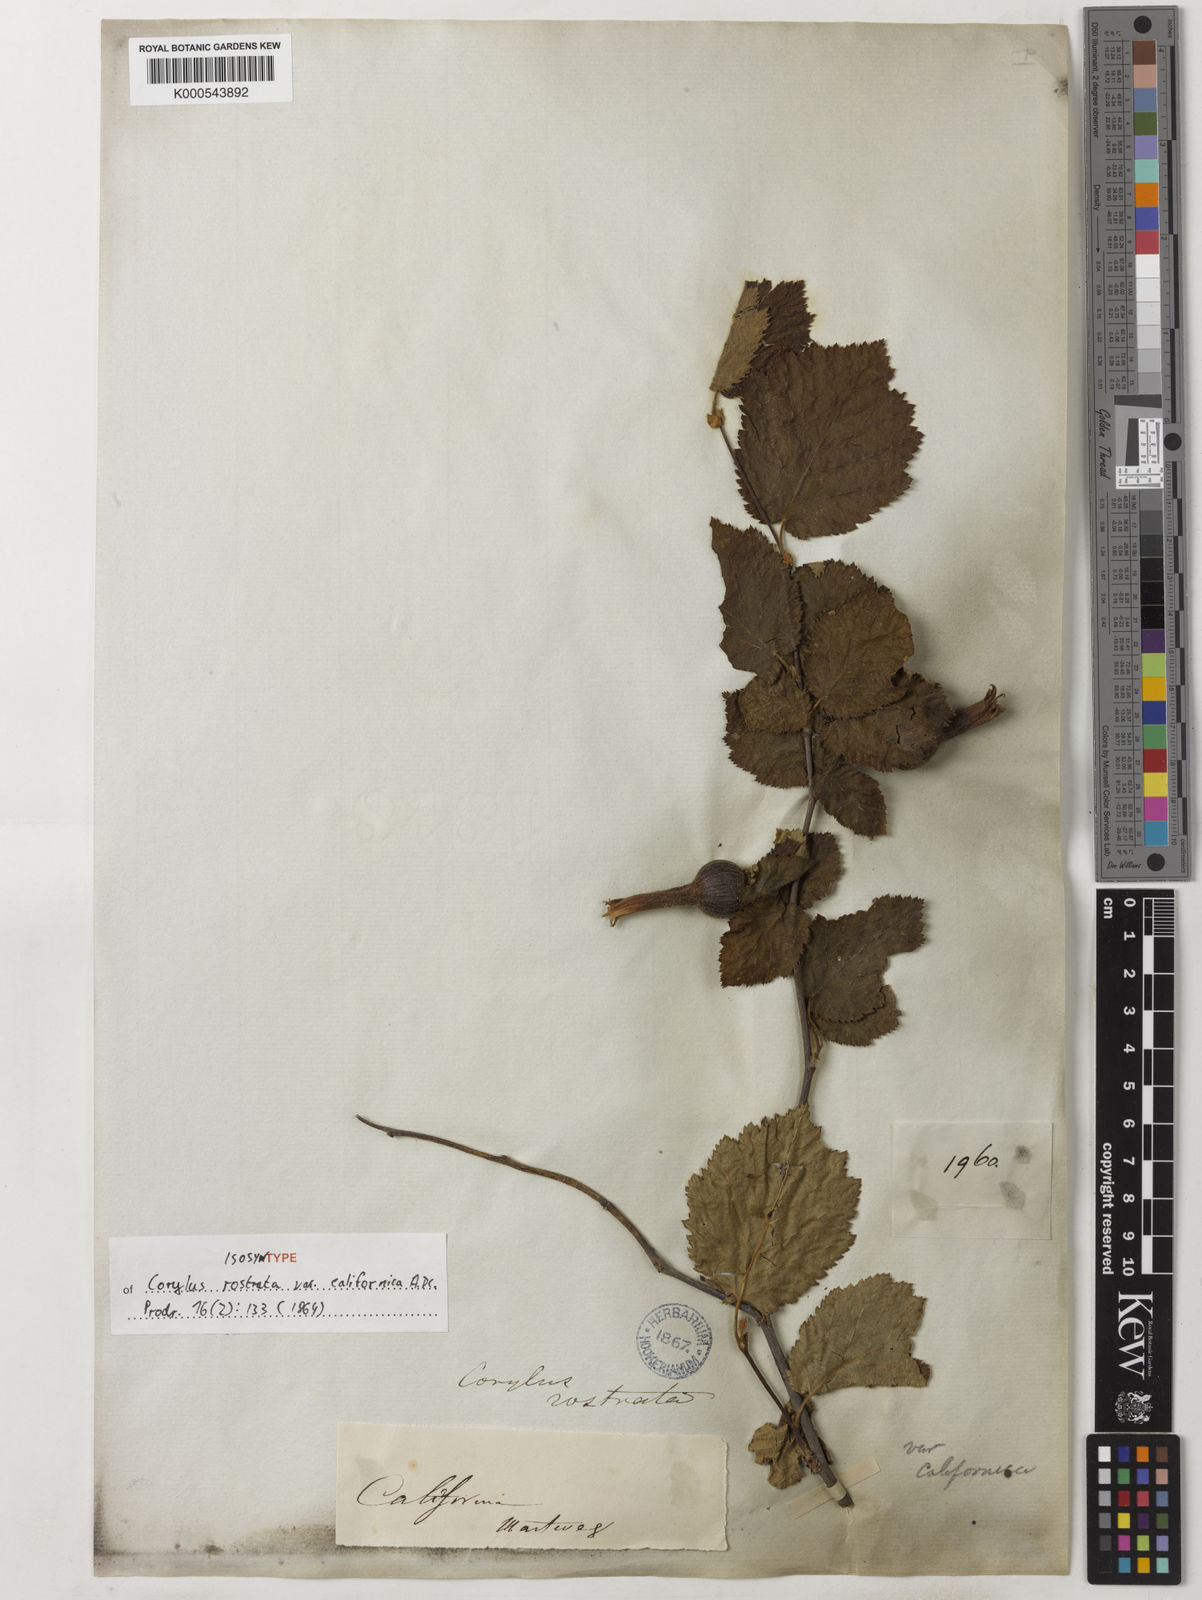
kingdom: Plantae
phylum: Tracheophyta
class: Magnoliopsida
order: Fagales
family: Betulaceae
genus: Corylus
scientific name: Corylus cornuta
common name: Beaked hazel
